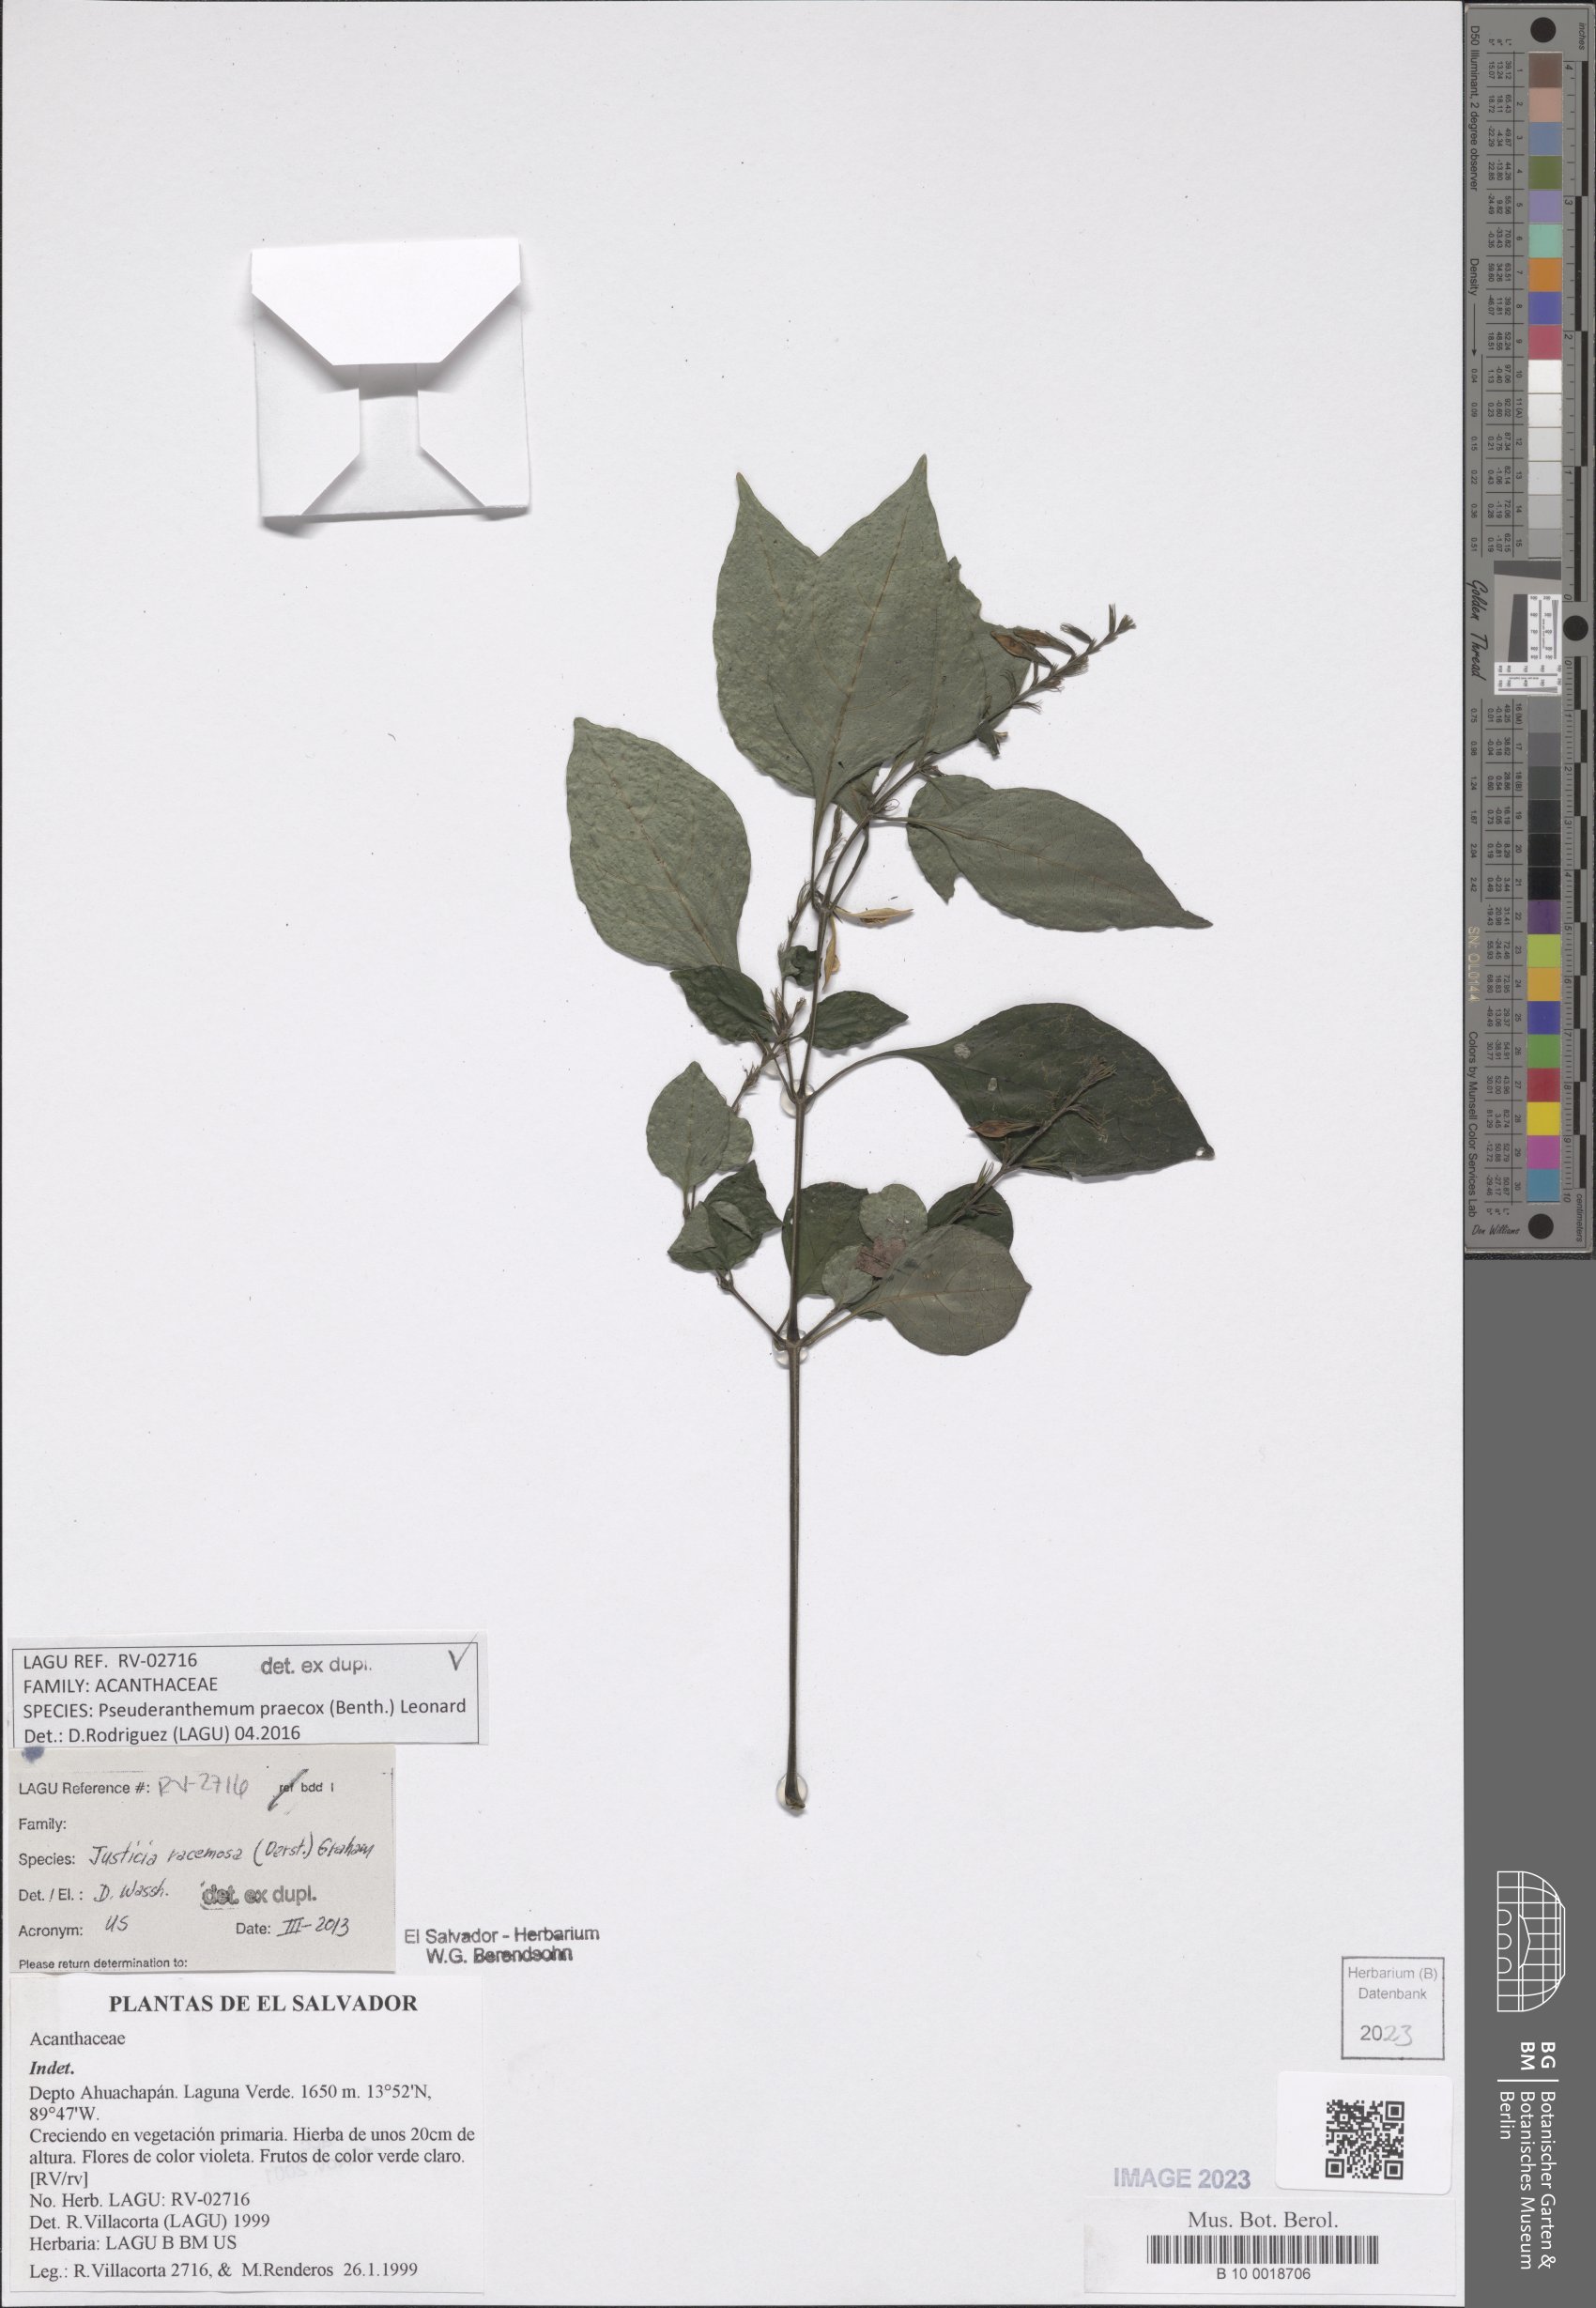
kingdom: Plantae
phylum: Tracheophyta
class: Magnoliopsida
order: Lamiales
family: Acanthaceae
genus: Pseuderanthemum
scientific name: Pseuderanthemum praecox
